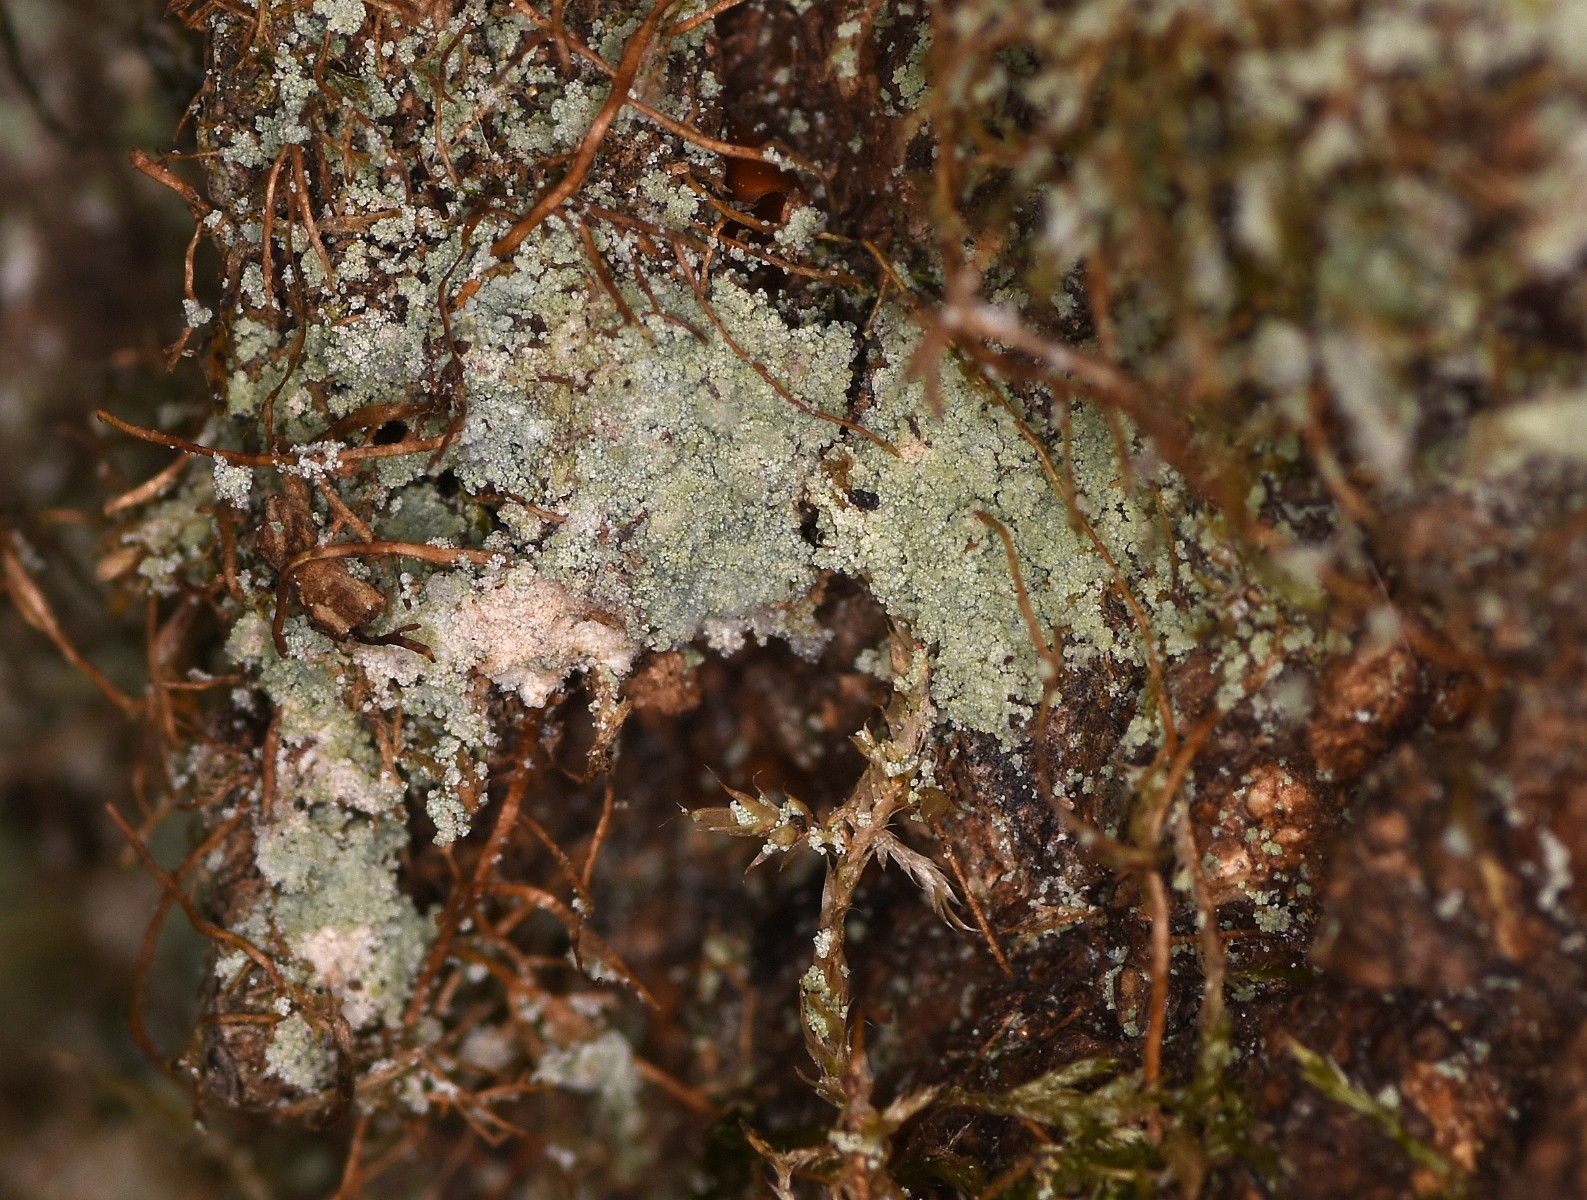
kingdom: Fungi
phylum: Ascomycota
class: Lecanoromycetes
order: Lecanorales
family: Stereocaulaceae
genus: Lepraria
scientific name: Lepraria incana
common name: almindelig støvlav
